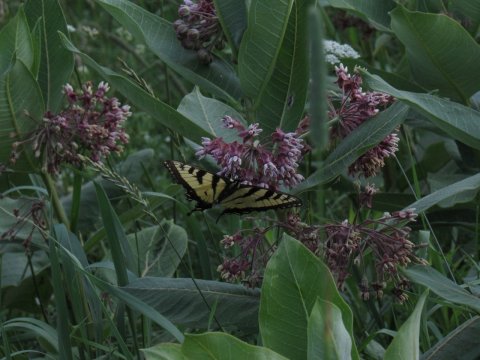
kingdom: Animalia
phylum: Arthropoda
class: Insecta
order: Lepidoptera
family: Papilionidae
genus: Pterourus
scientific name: Pterourus
